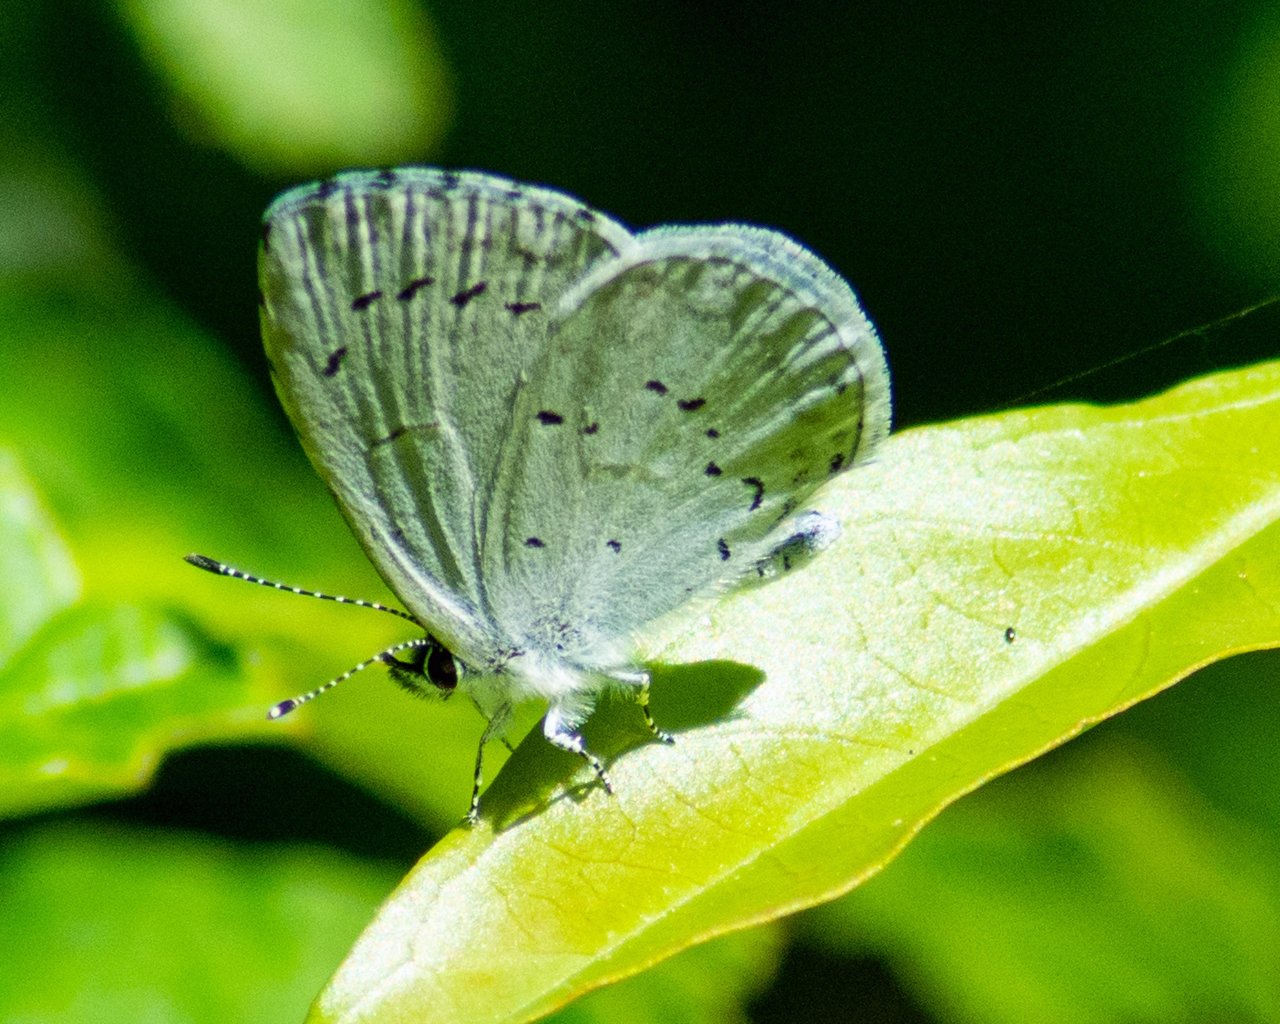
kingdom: Animalia
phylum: Arthropoda
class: Insecta
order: Lepidoptera
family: Lycaenidae
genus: Celastrina
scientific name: Celastrina
